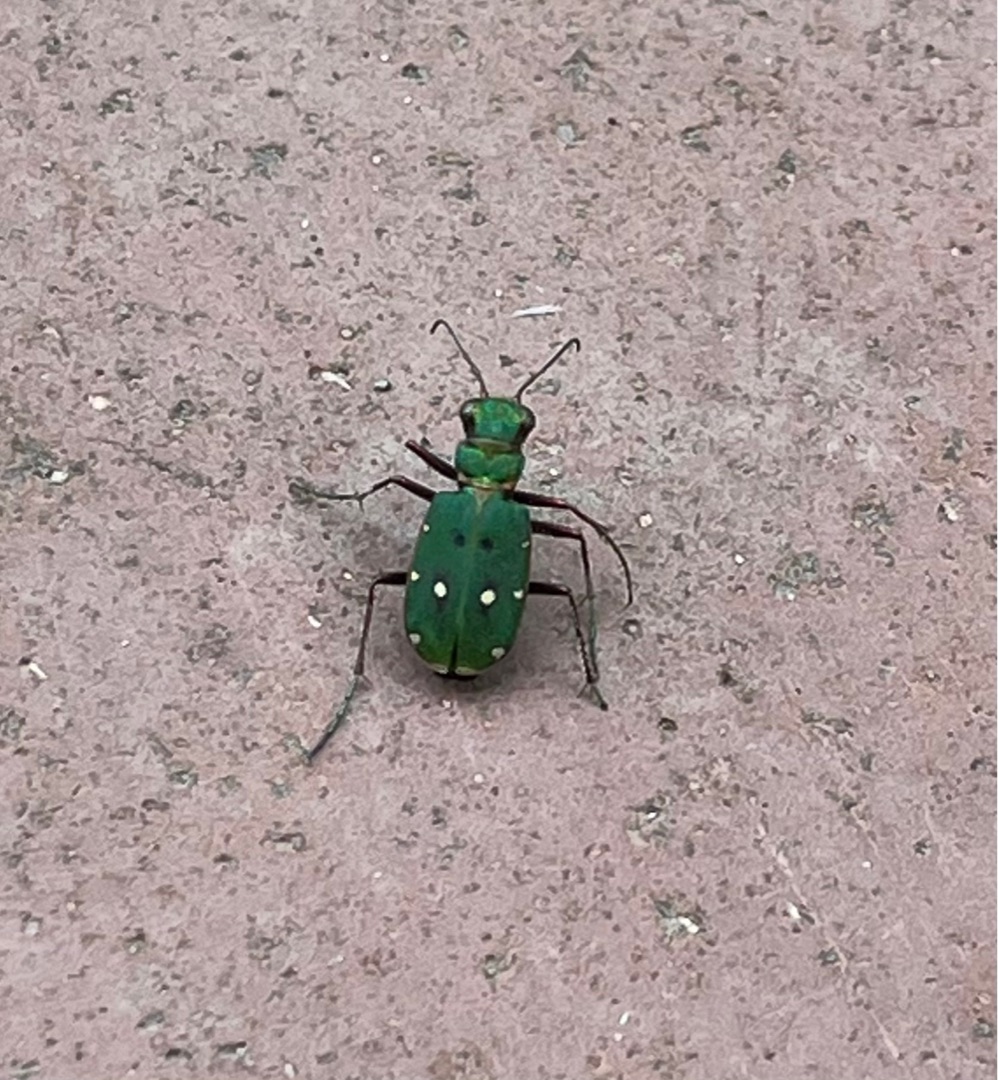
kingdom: Animalia
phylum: Arthropoda
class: Insecta
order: Coleoptera
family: Carabidae
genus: Cicindela
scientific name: Cicindela campestris
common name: Grøn sandspringer
